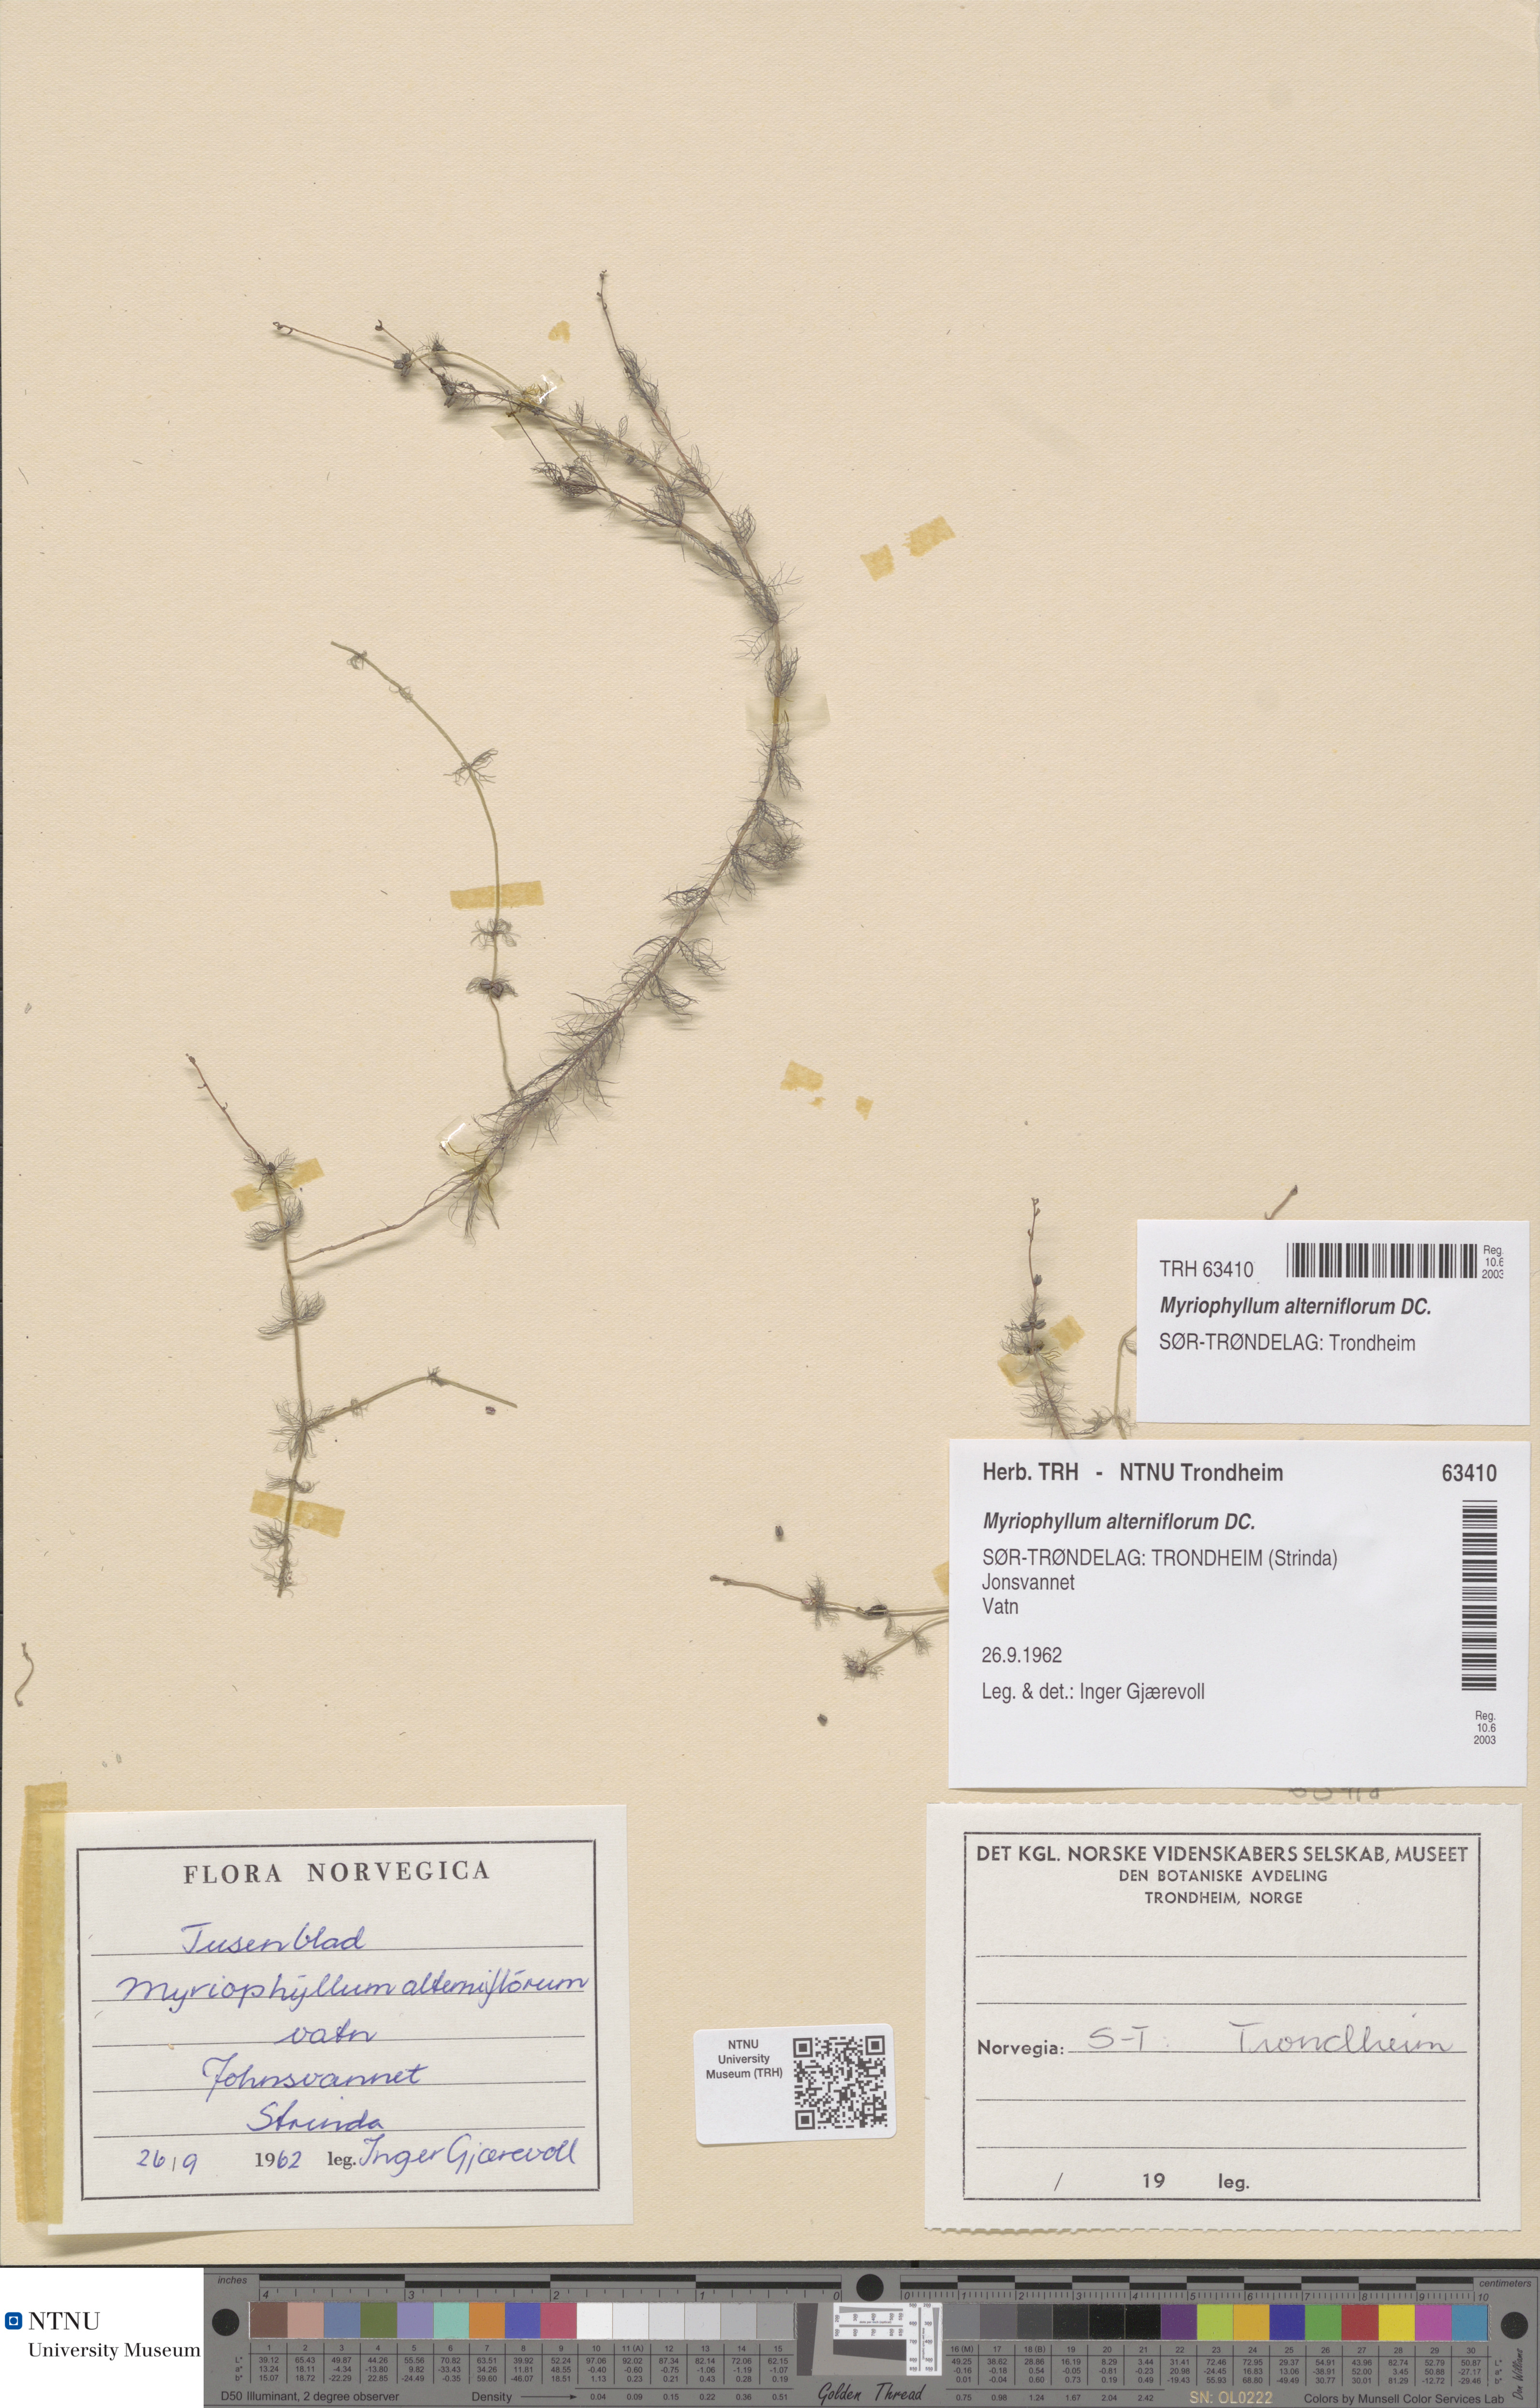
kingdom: Plantae
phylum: Tracheophyta
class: Magnoliopsida
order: Saxifragales
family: Haloragaceae
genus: Myriophyllum
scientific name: Myriophyllum alterniflorum
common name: Alternate water-milfoil
